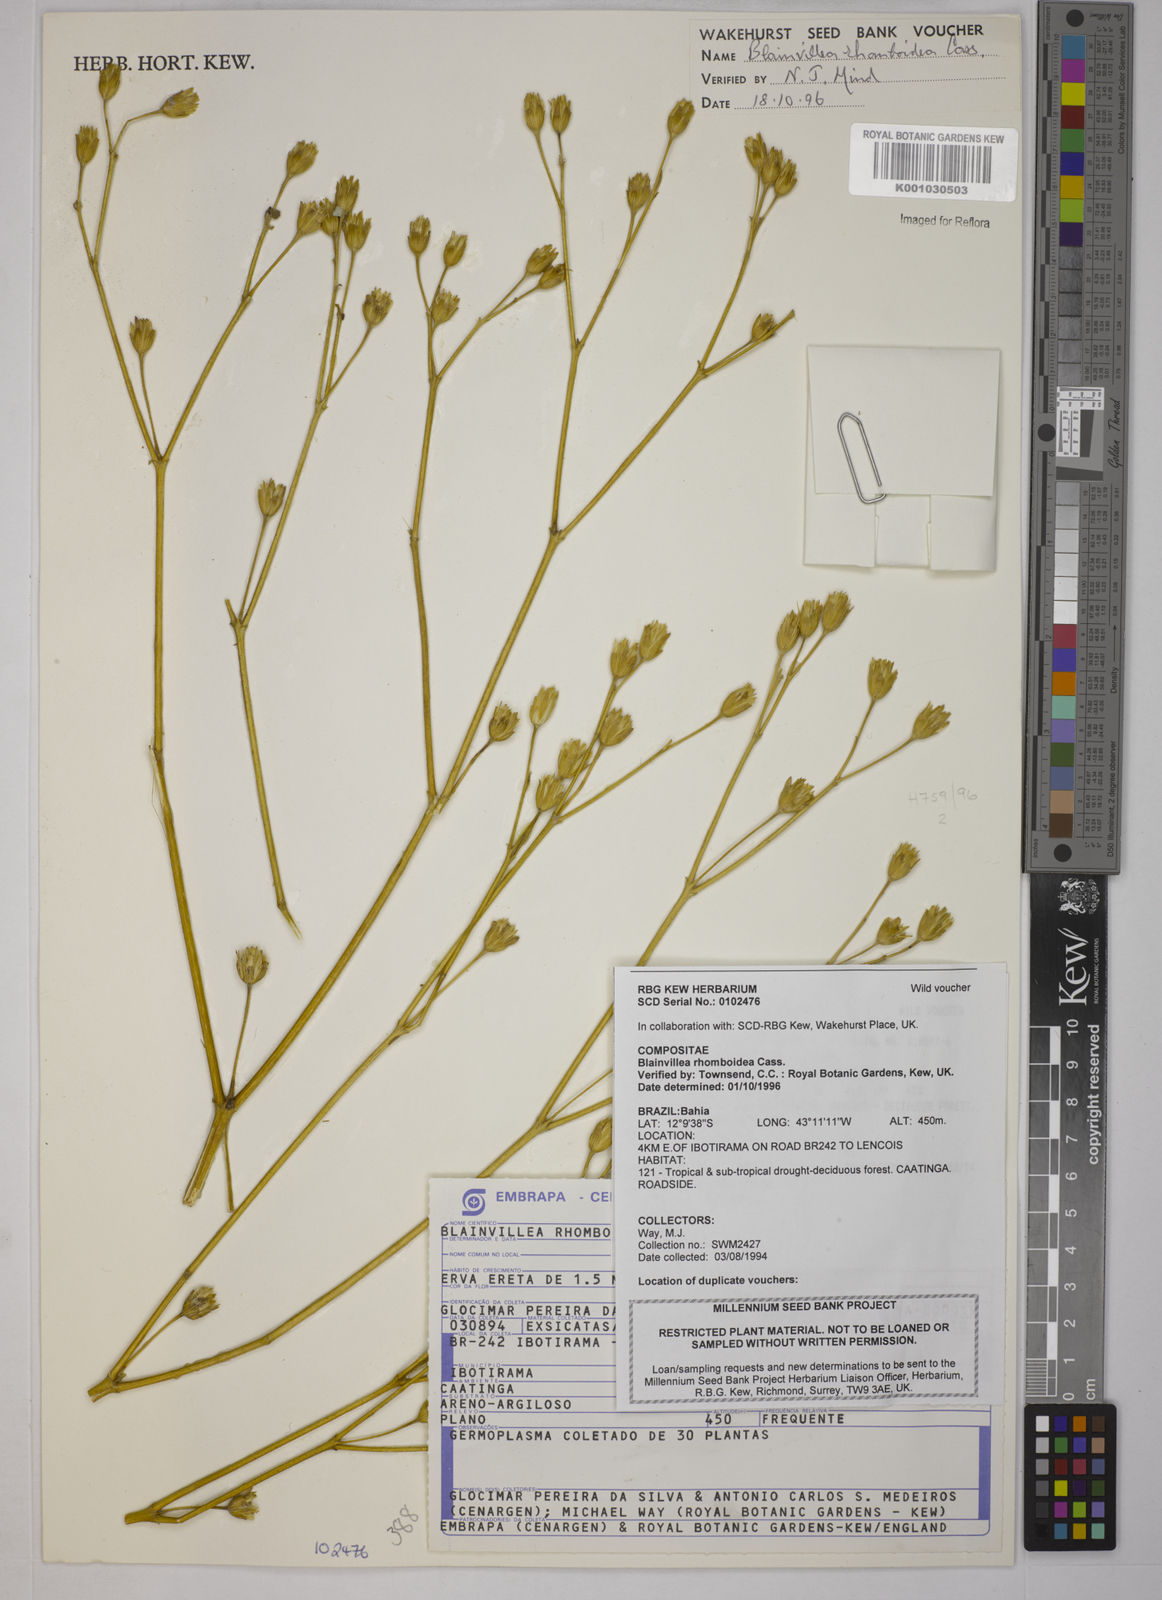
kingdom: Plantae
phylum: Tracheophyta
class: Magnoliopsida
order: Asterales
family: Asteraceae
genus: Blainvillea
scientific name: Blainvillea acmella
